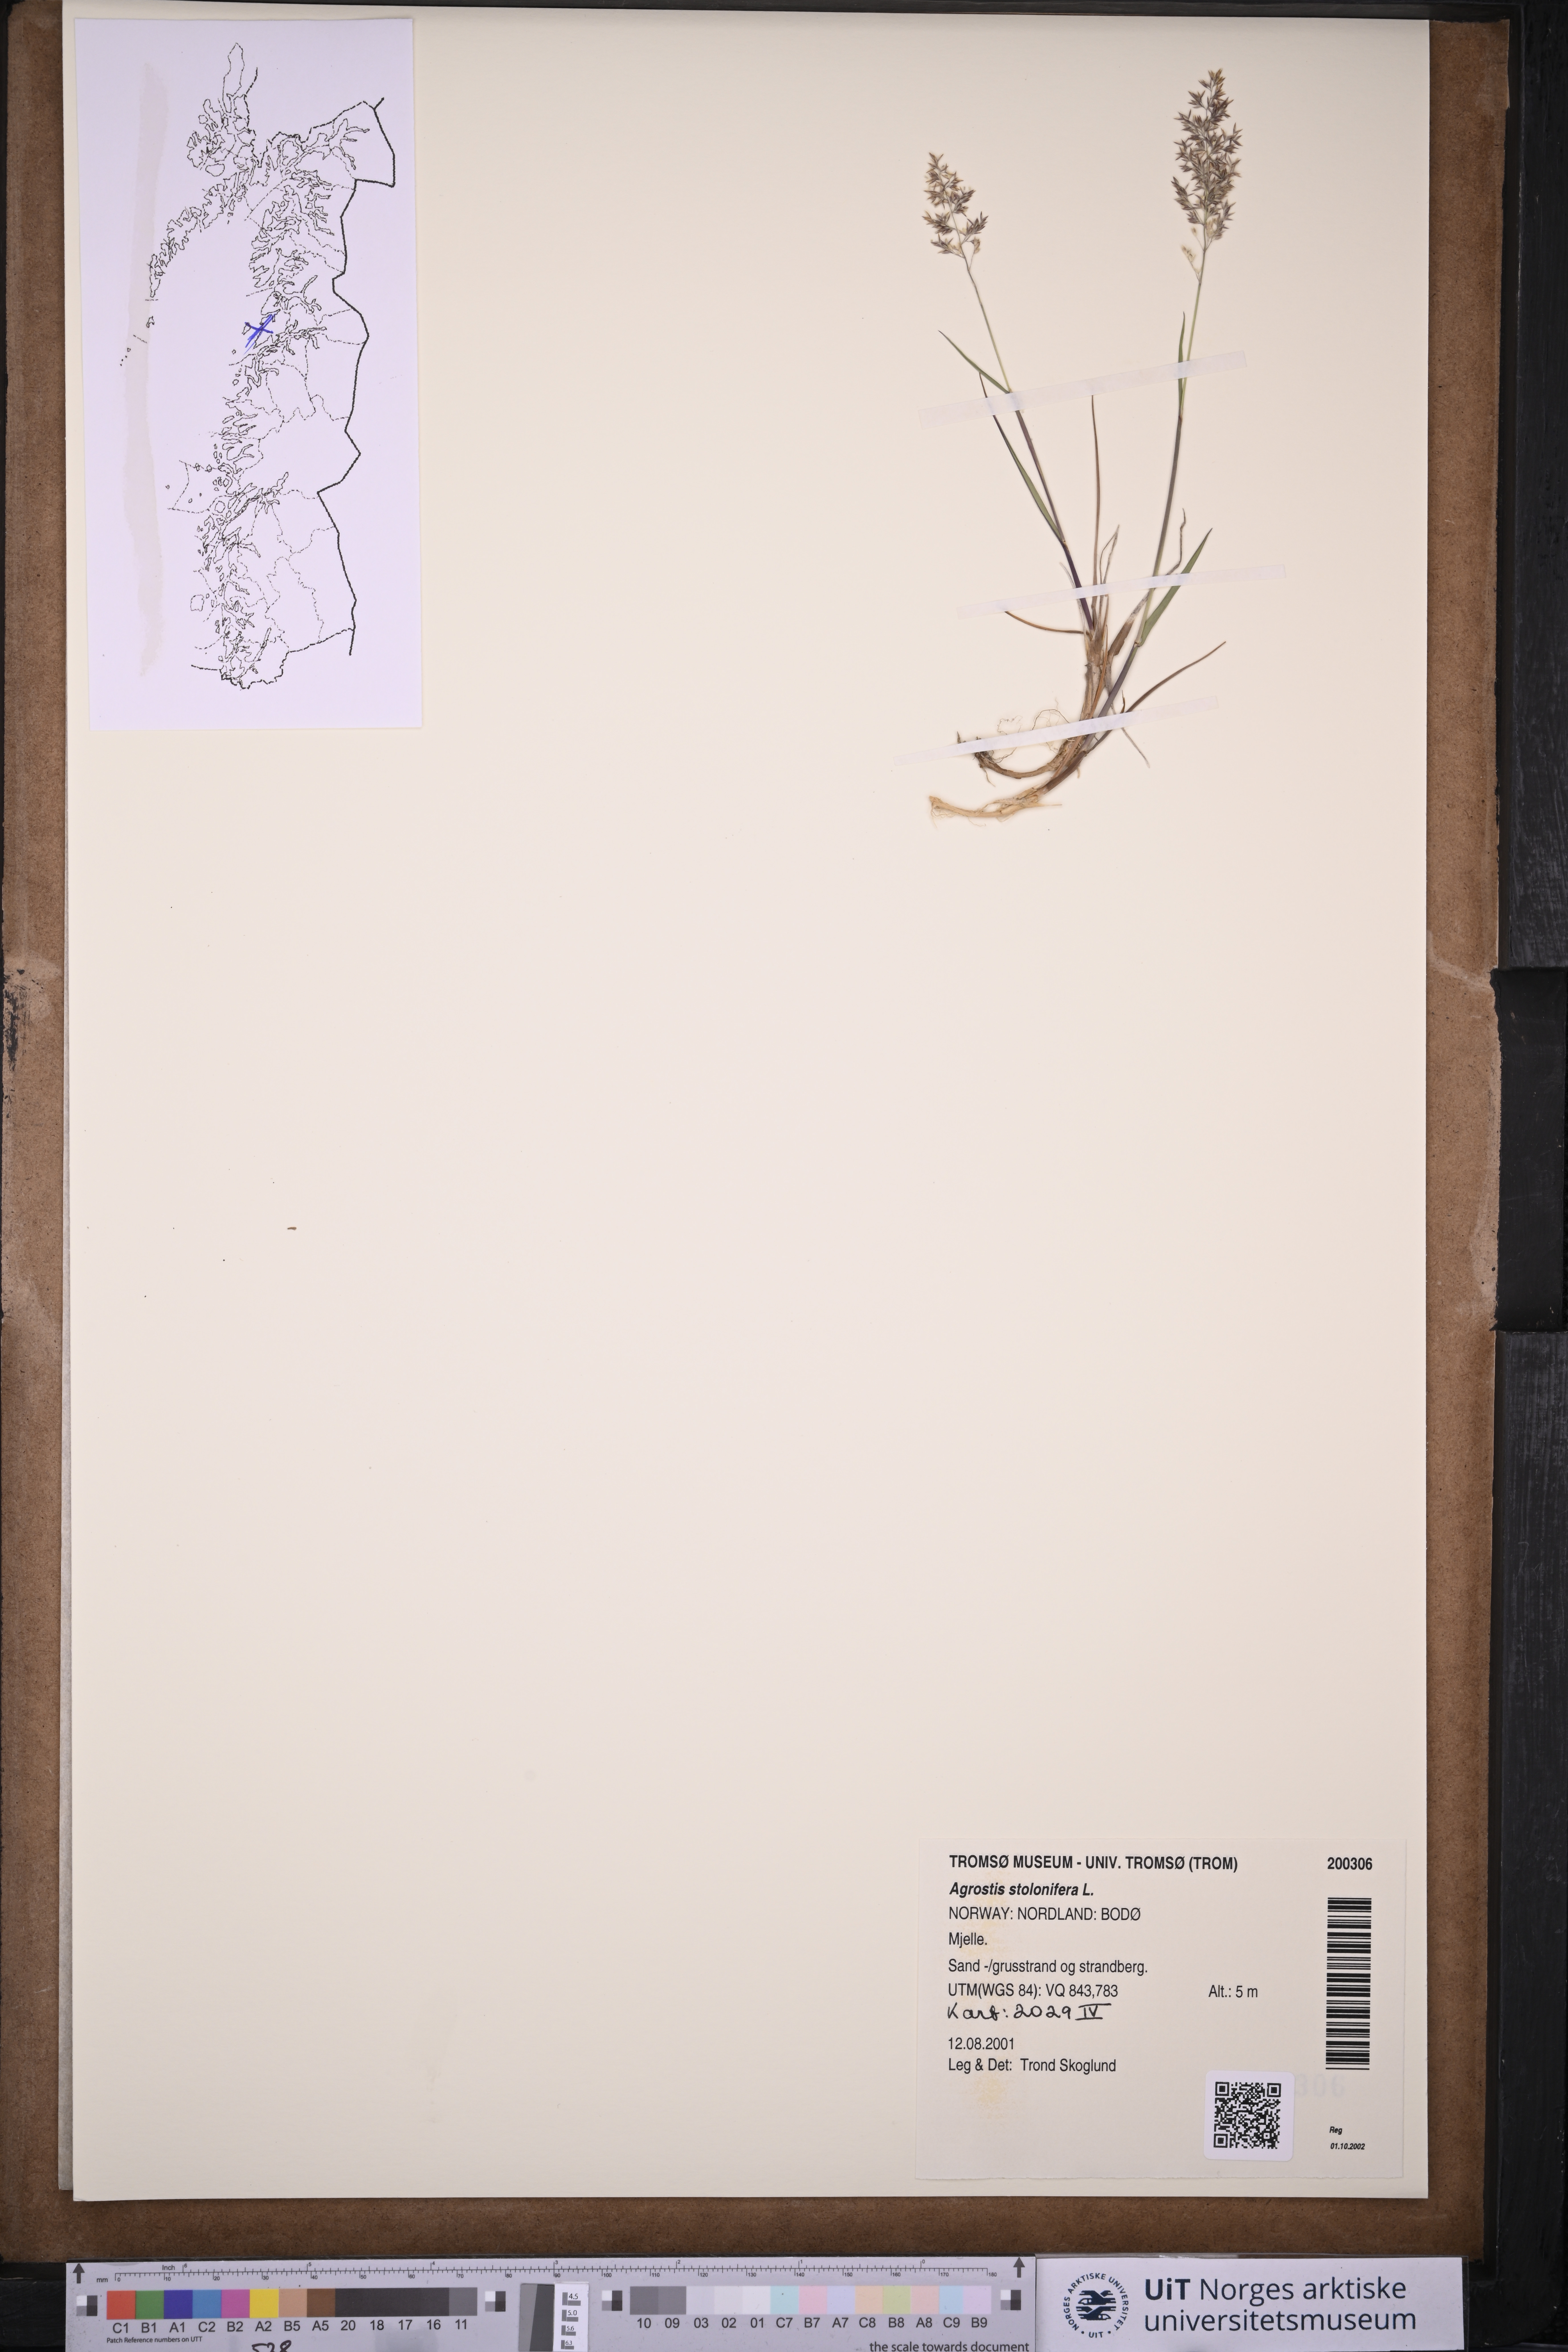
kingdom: Plantae
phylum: Tracheophyta
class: Liliopsida
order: Poales
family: Poaceae
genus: Agrostis
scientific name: Agrostis stolonifera
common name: Creeping bentgrass
